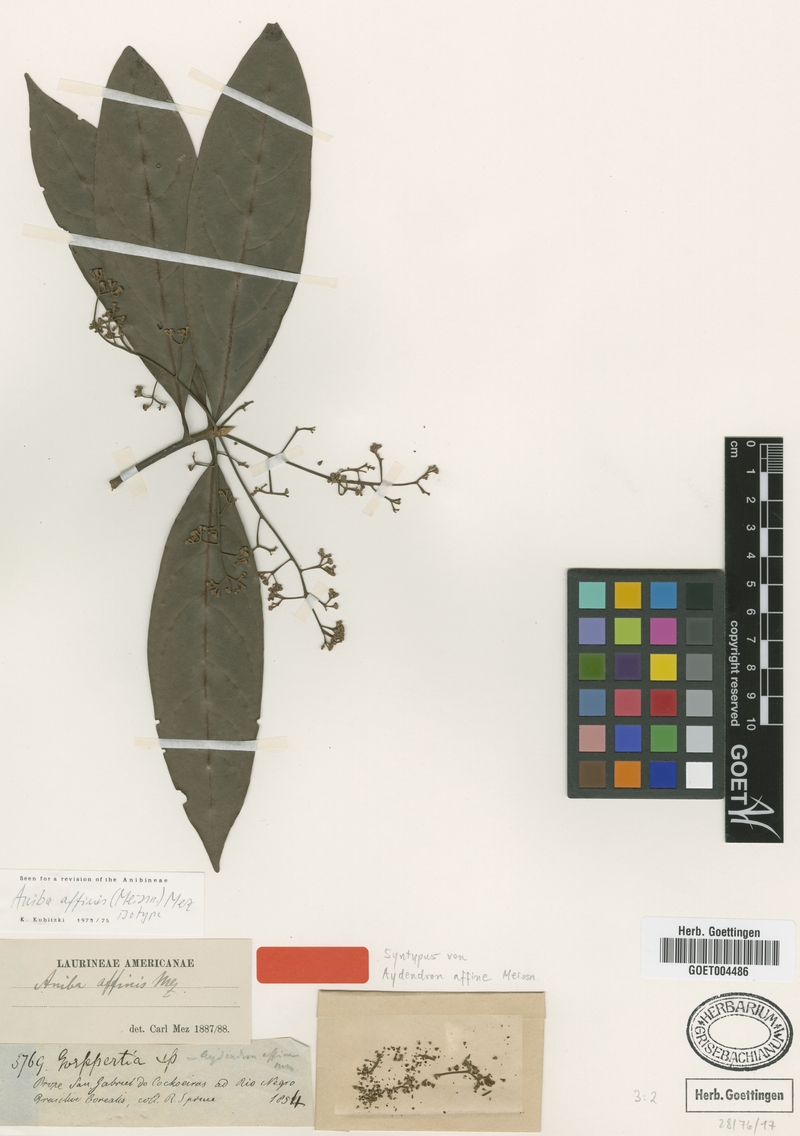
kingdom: Plantae
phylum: Tracheophyta
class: Magnoliopsida
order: Laurales
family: Lauraceae
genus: Aniba
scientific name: Aniba affinis
